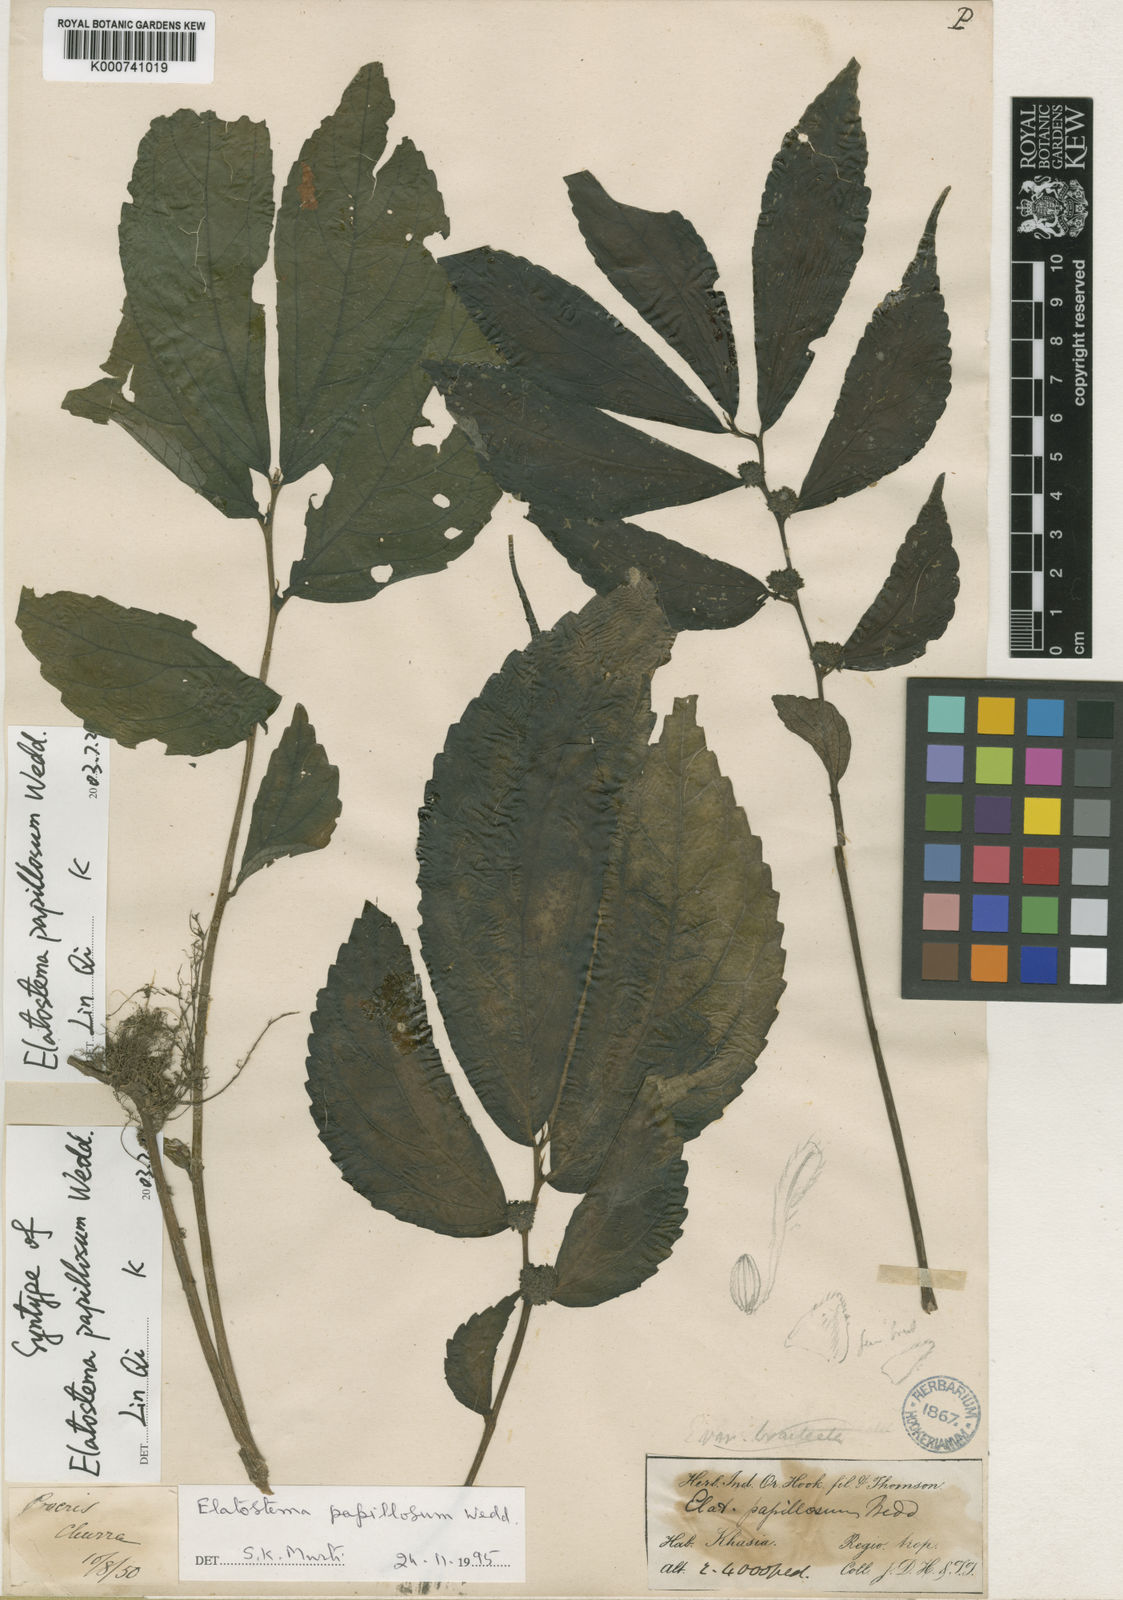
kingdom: Plantae
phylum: Tracheophyta
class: Magnoliopsida
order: Rosales
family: Urticaceae
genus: Elatostema
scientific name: Elatostema papillosum
